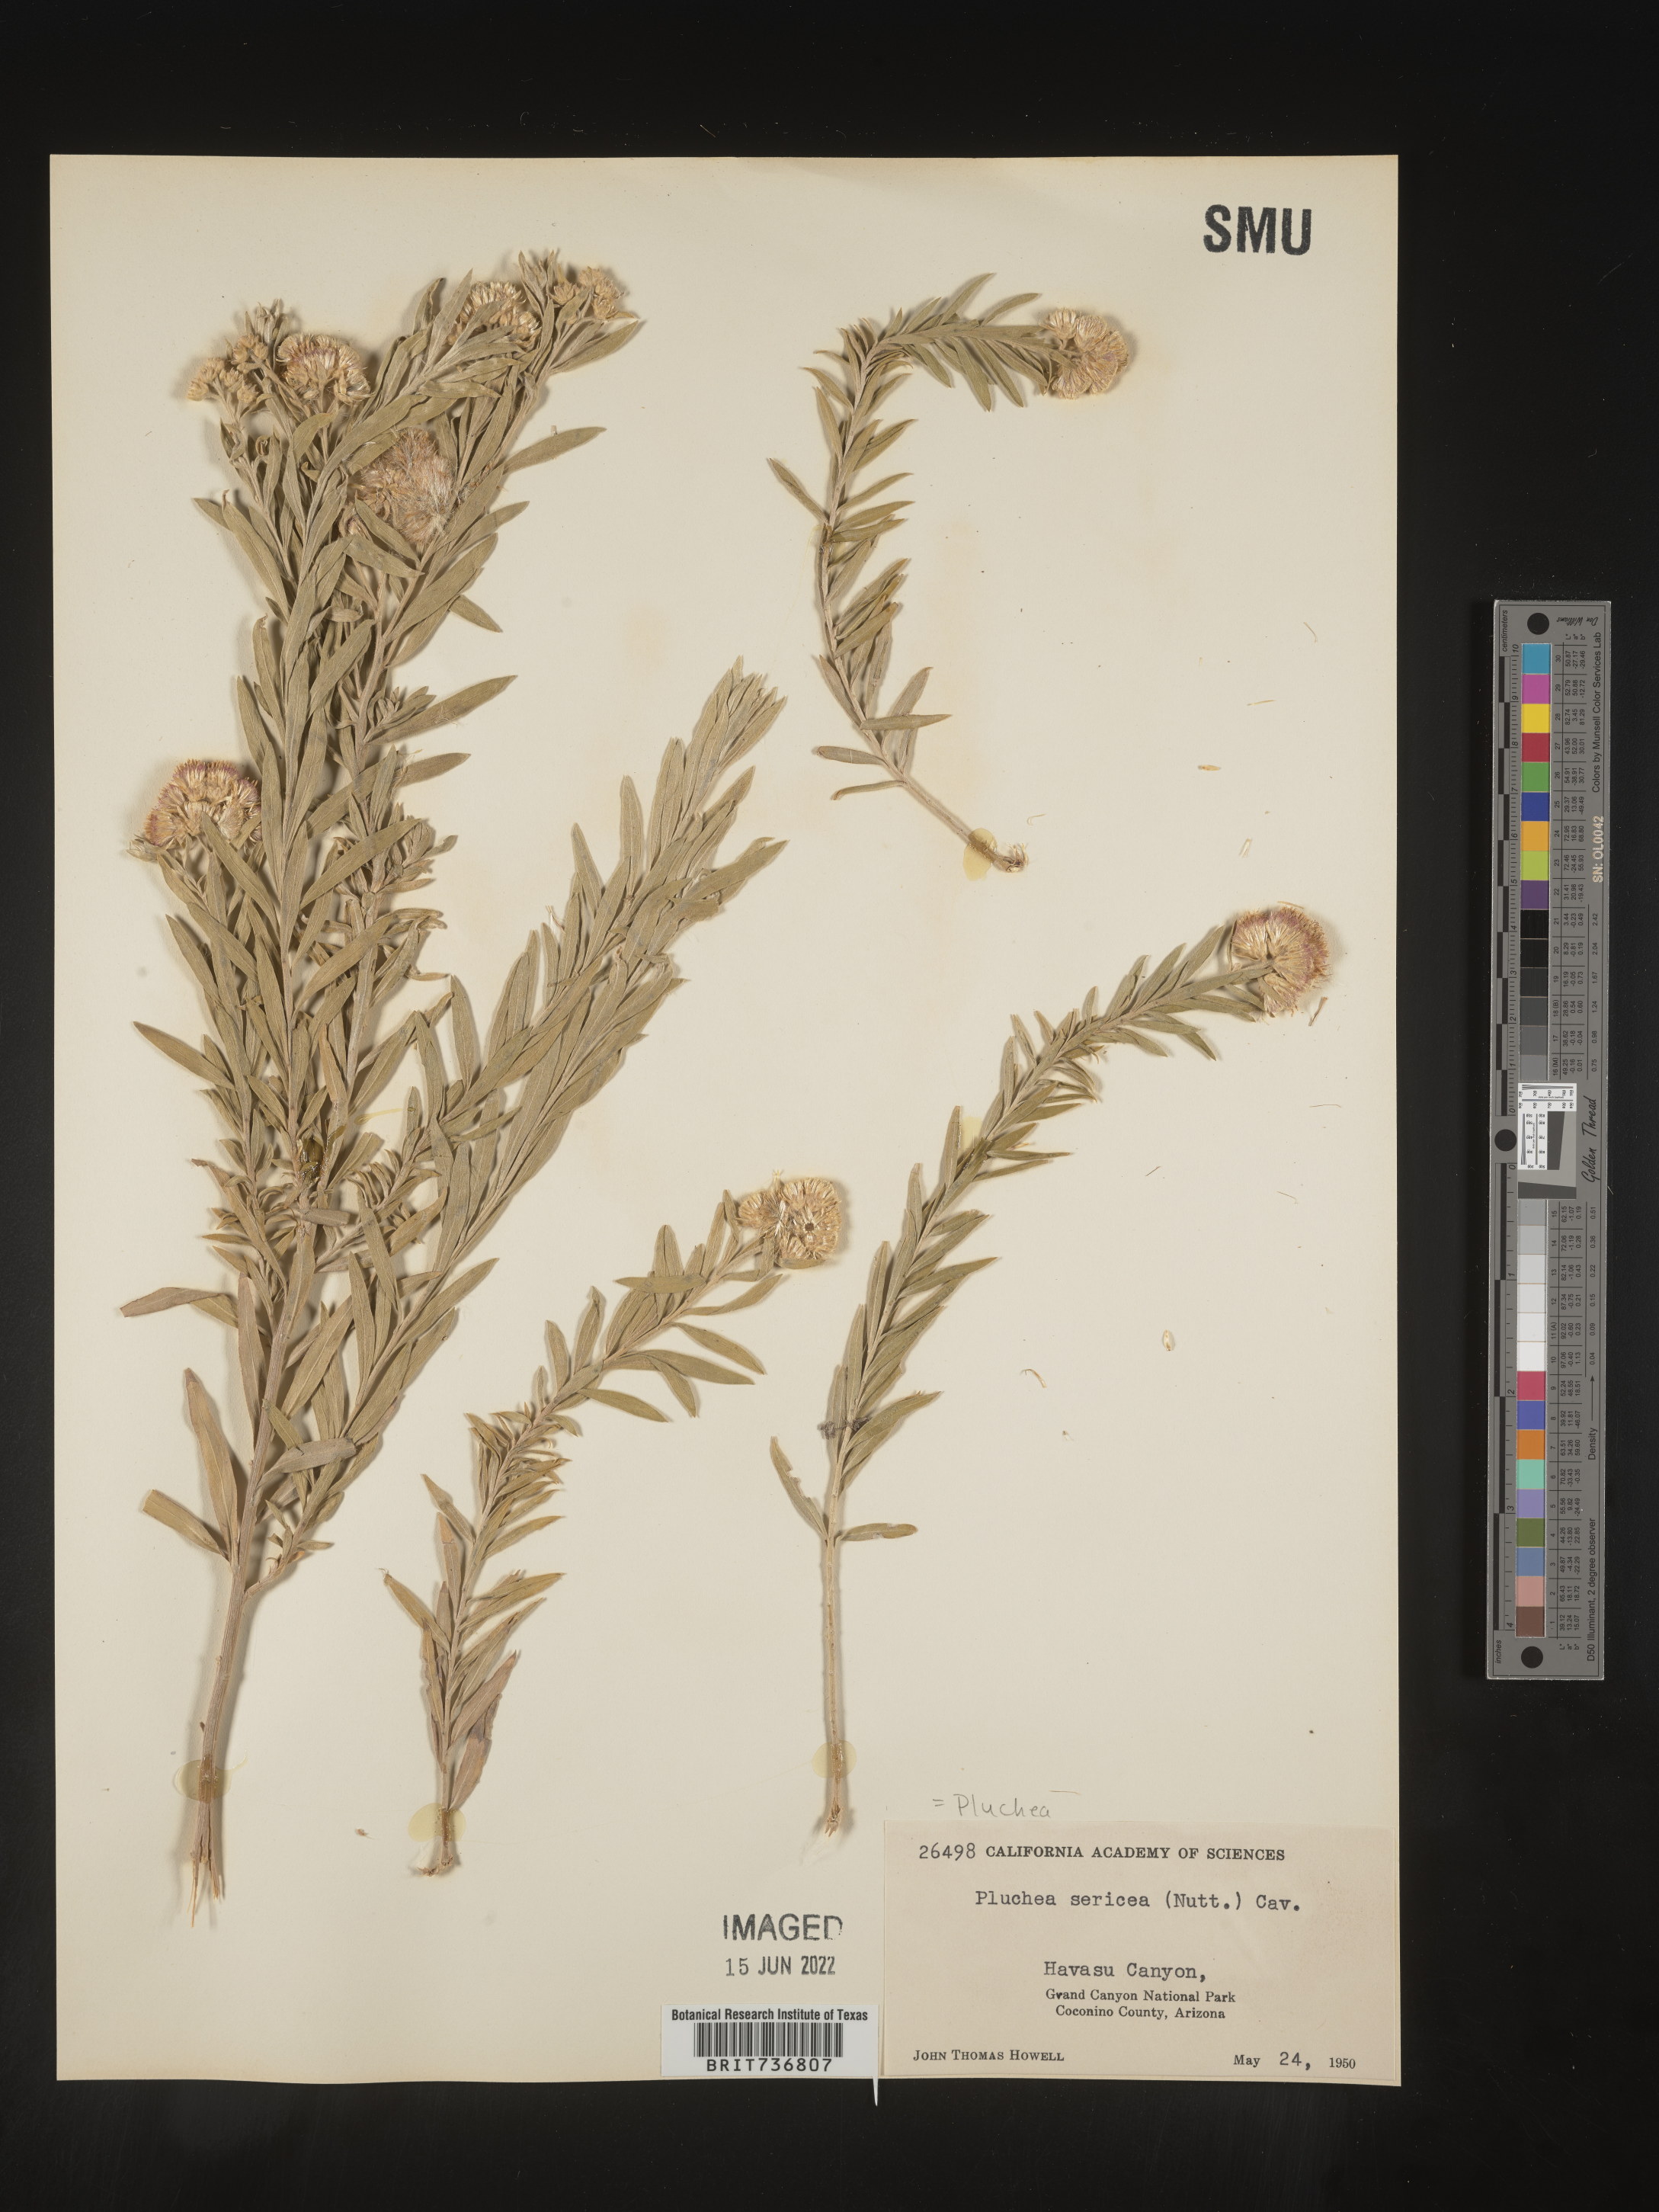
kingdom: Plantae
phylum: Tracheophyta
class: Magnoliopsida
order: Asterales
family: Asteraceae
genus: Pluchea
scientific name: Pluchea sericea
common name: Arrow-weed
